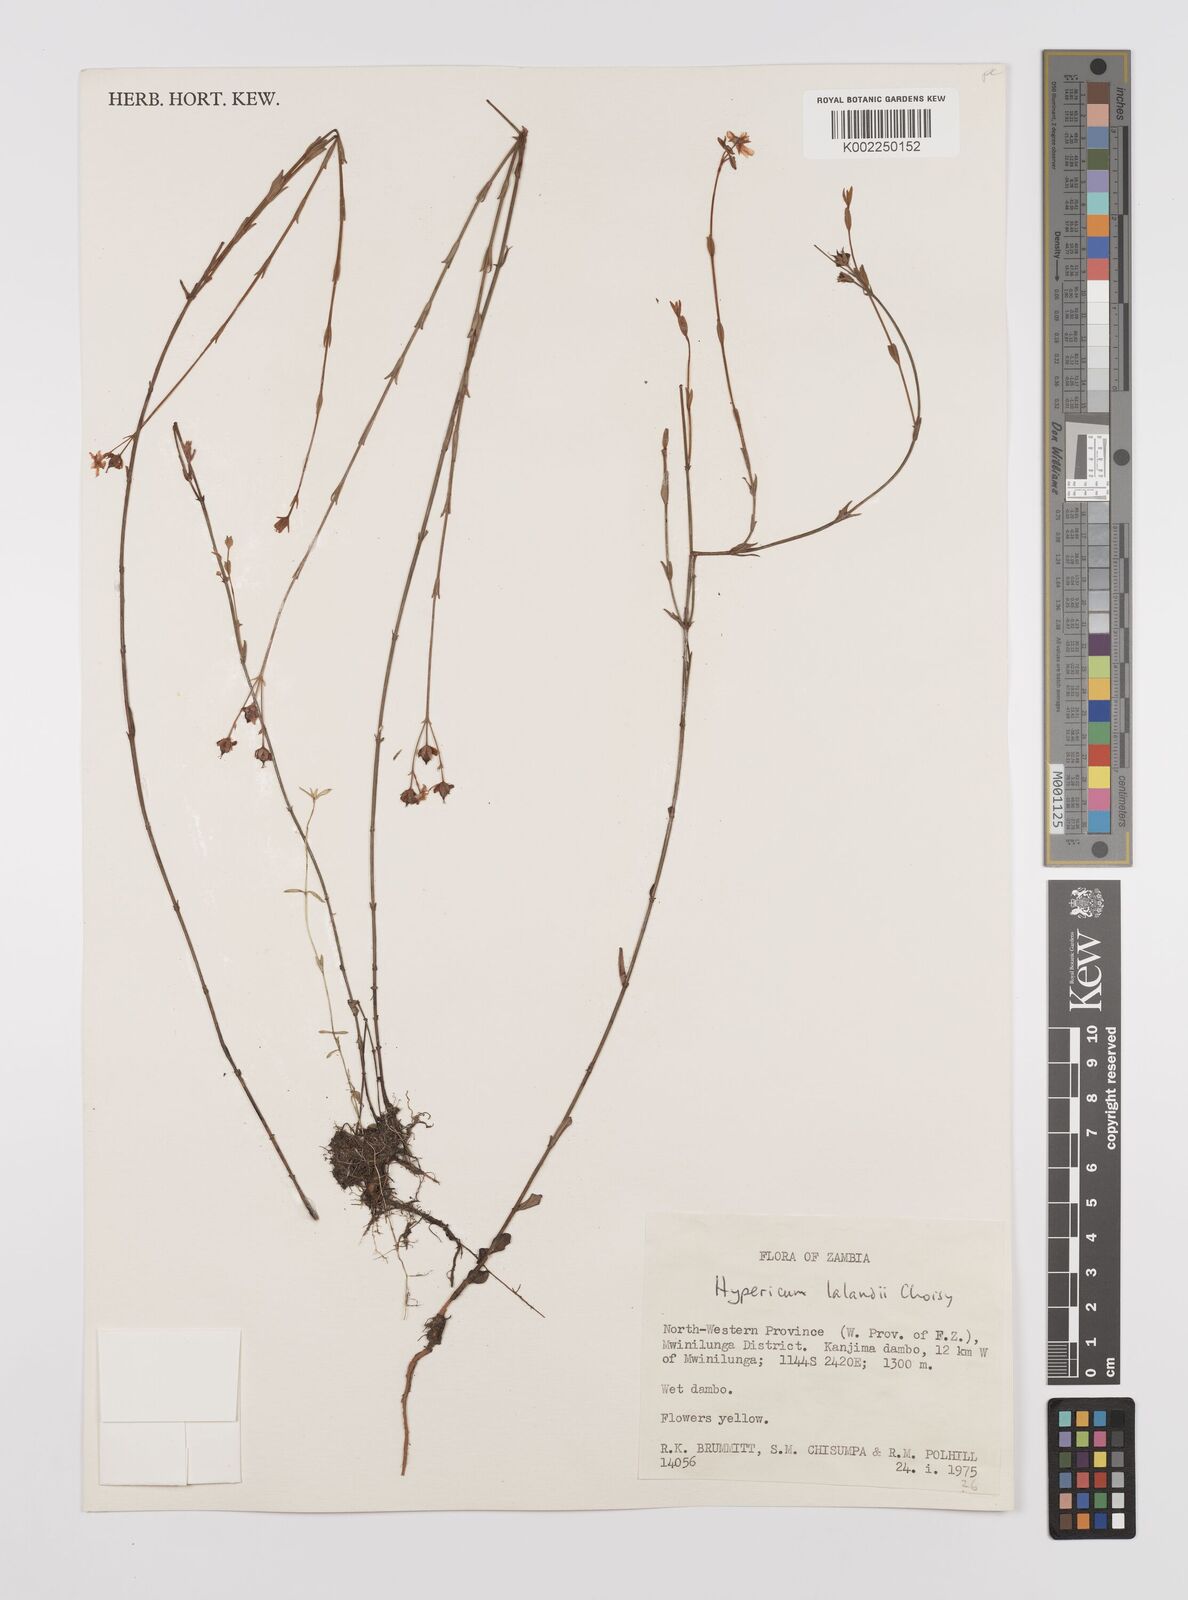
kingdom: Plantae
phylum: Tracheophyta
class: Magnoliopsida
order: Malpighiales
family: Hypericaceae
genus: Hypericum
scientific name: Hypericum lalandii
